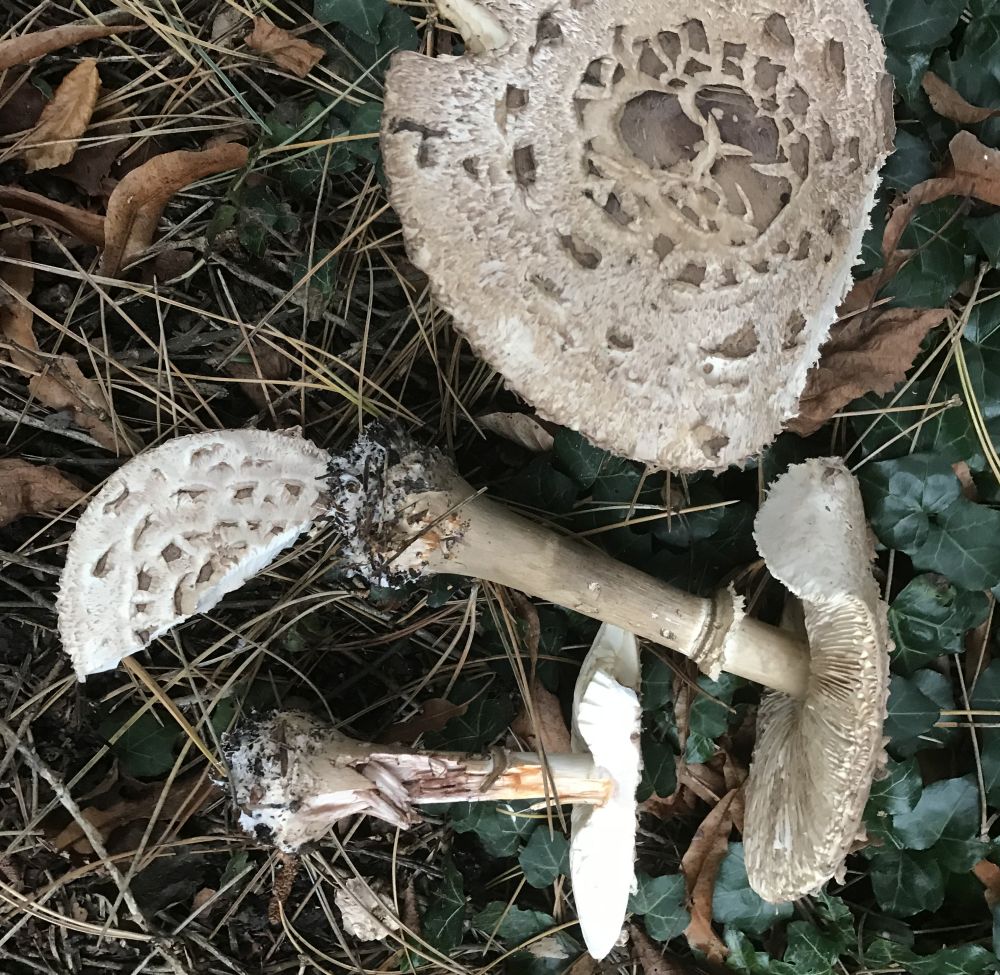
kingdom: Fungi
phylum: Basidiomycota
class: Agaricomycetes
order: Agaricales
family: Agaricaceae
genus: Chlorophyllum
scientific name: Chlorophyllum brunneum
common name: giftig rabarberhat
